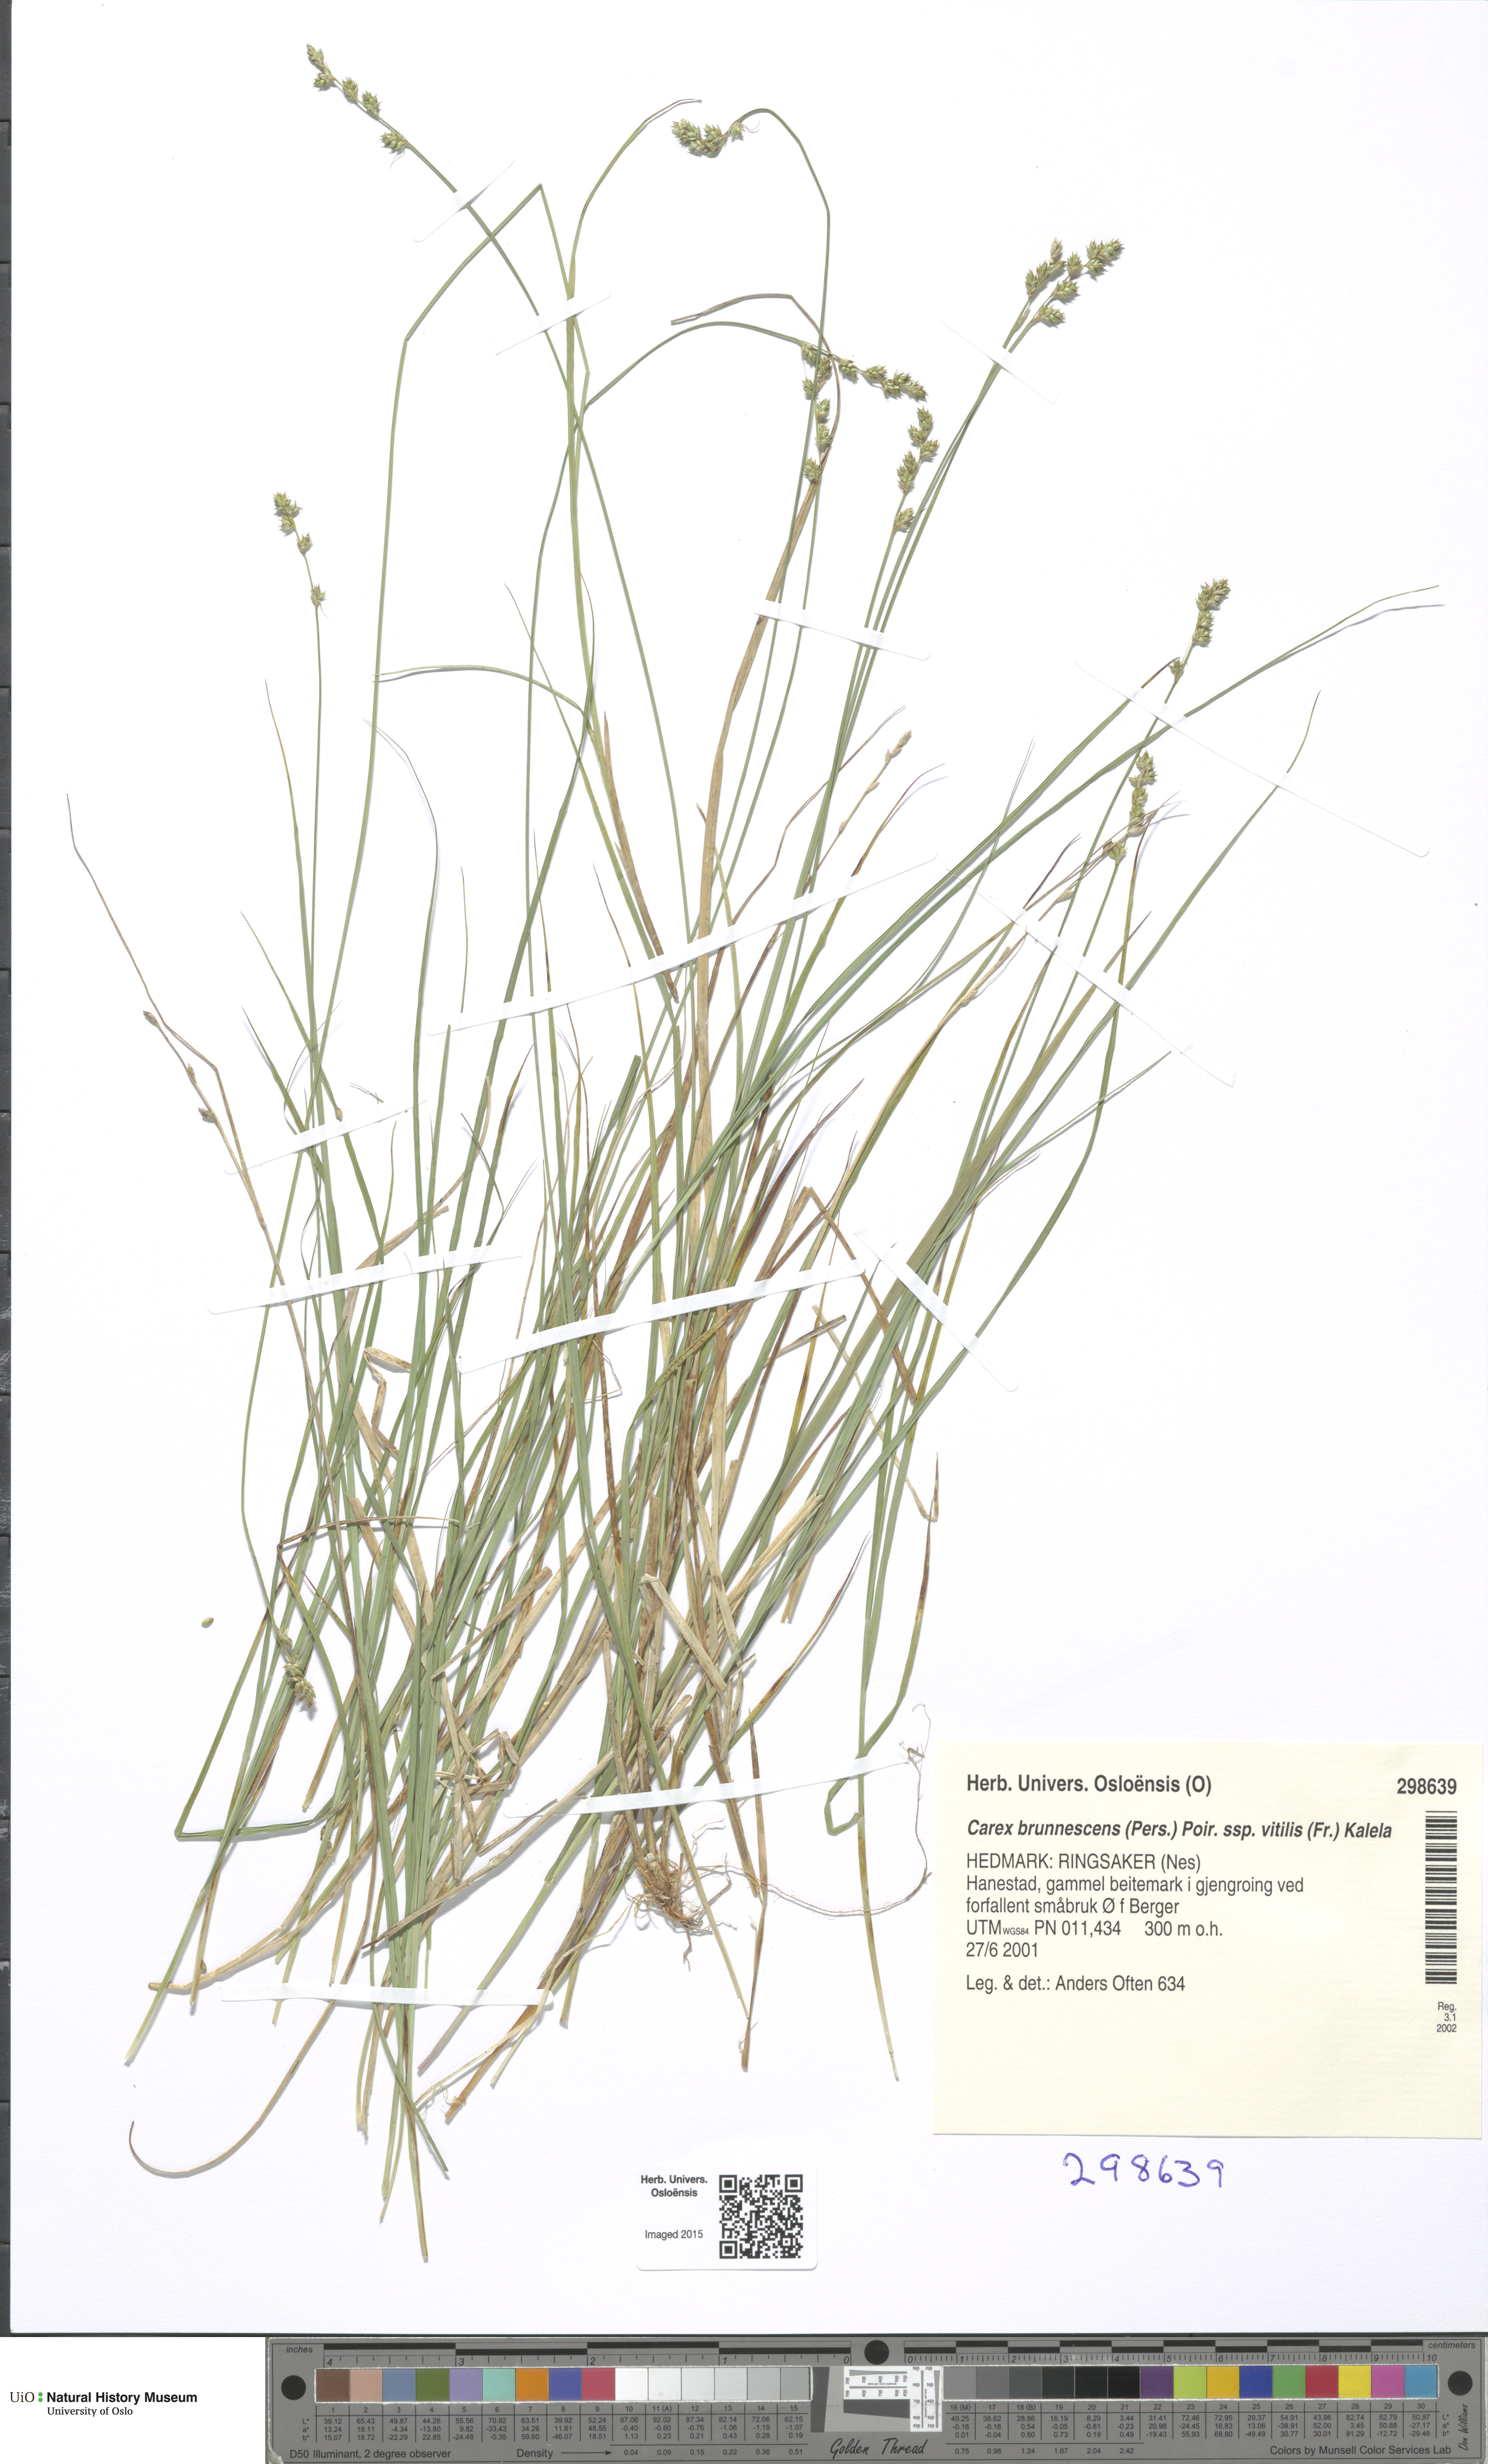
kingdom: Plantae
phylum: Tracheophyta
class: Liliopsida
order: Poales
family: Cyperaceae
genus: Carex
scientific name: Carex brunnescens
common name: Brown sedge
